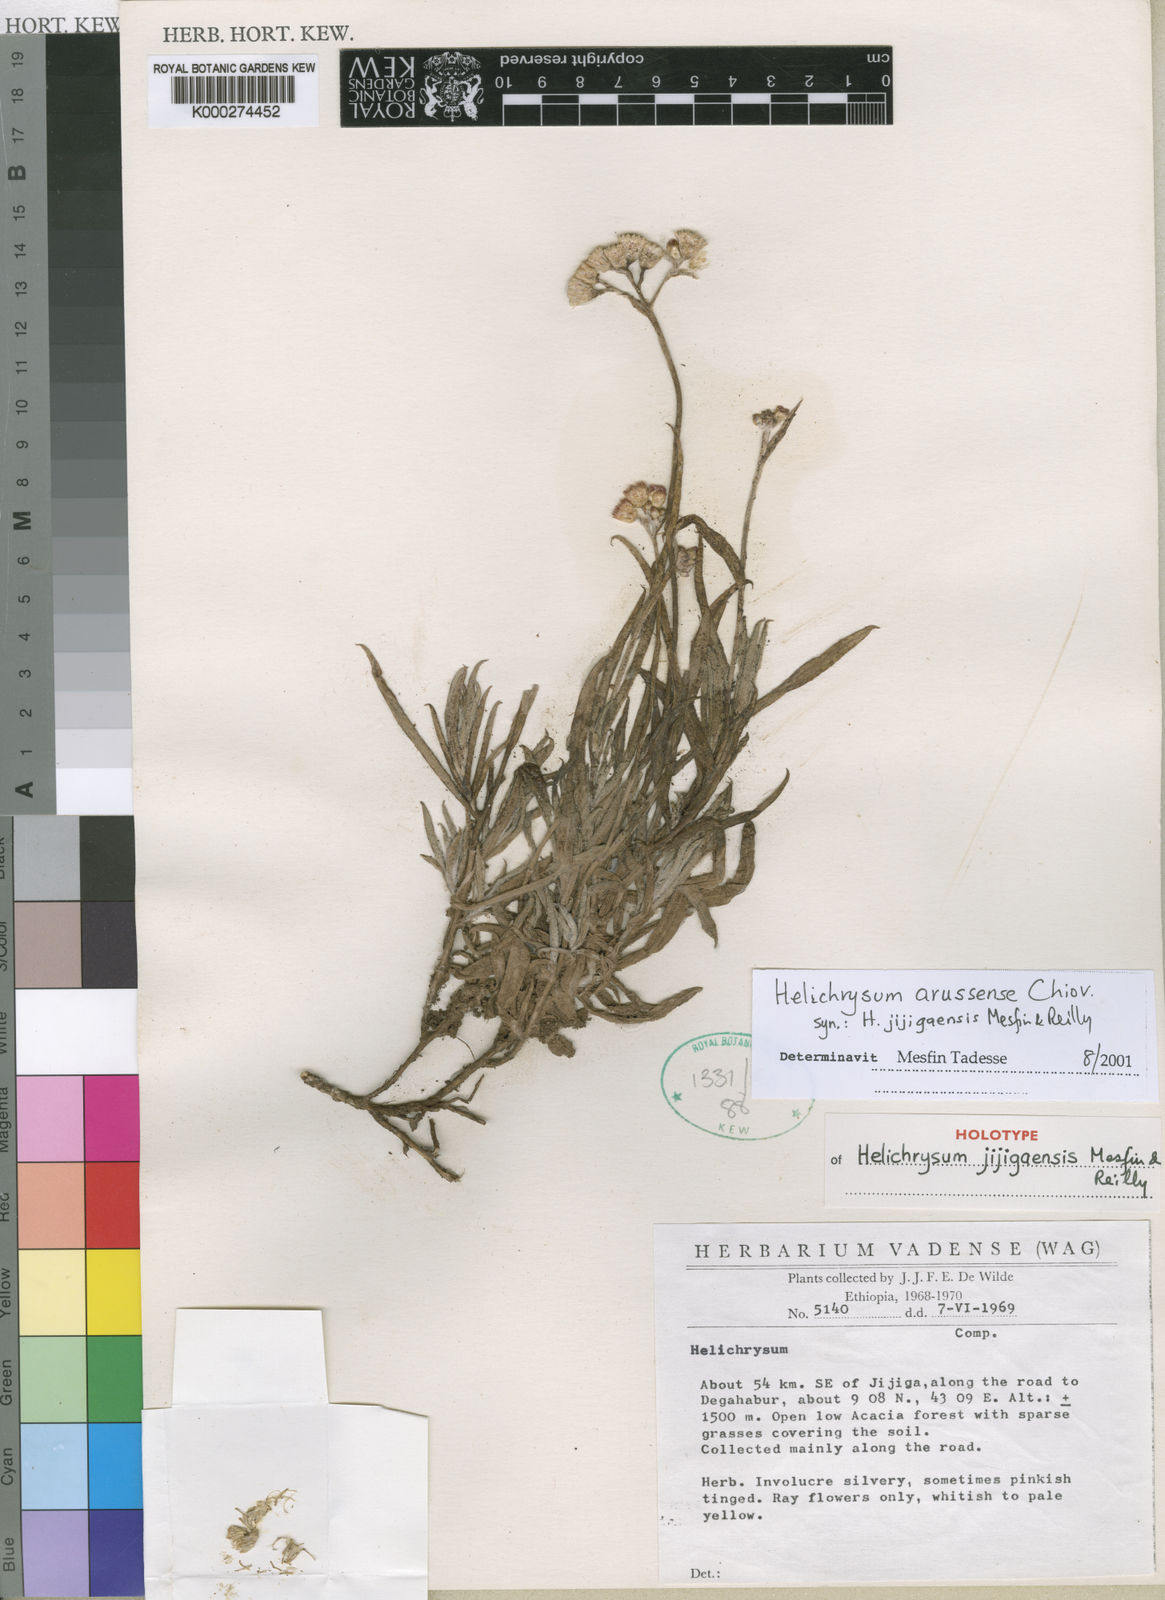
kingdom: Plantae
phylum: Tracheophyta
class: Magnoliopsida
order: Asterales
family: Asteraceae
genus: Helichrysum
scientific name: Helichrysum arussense
